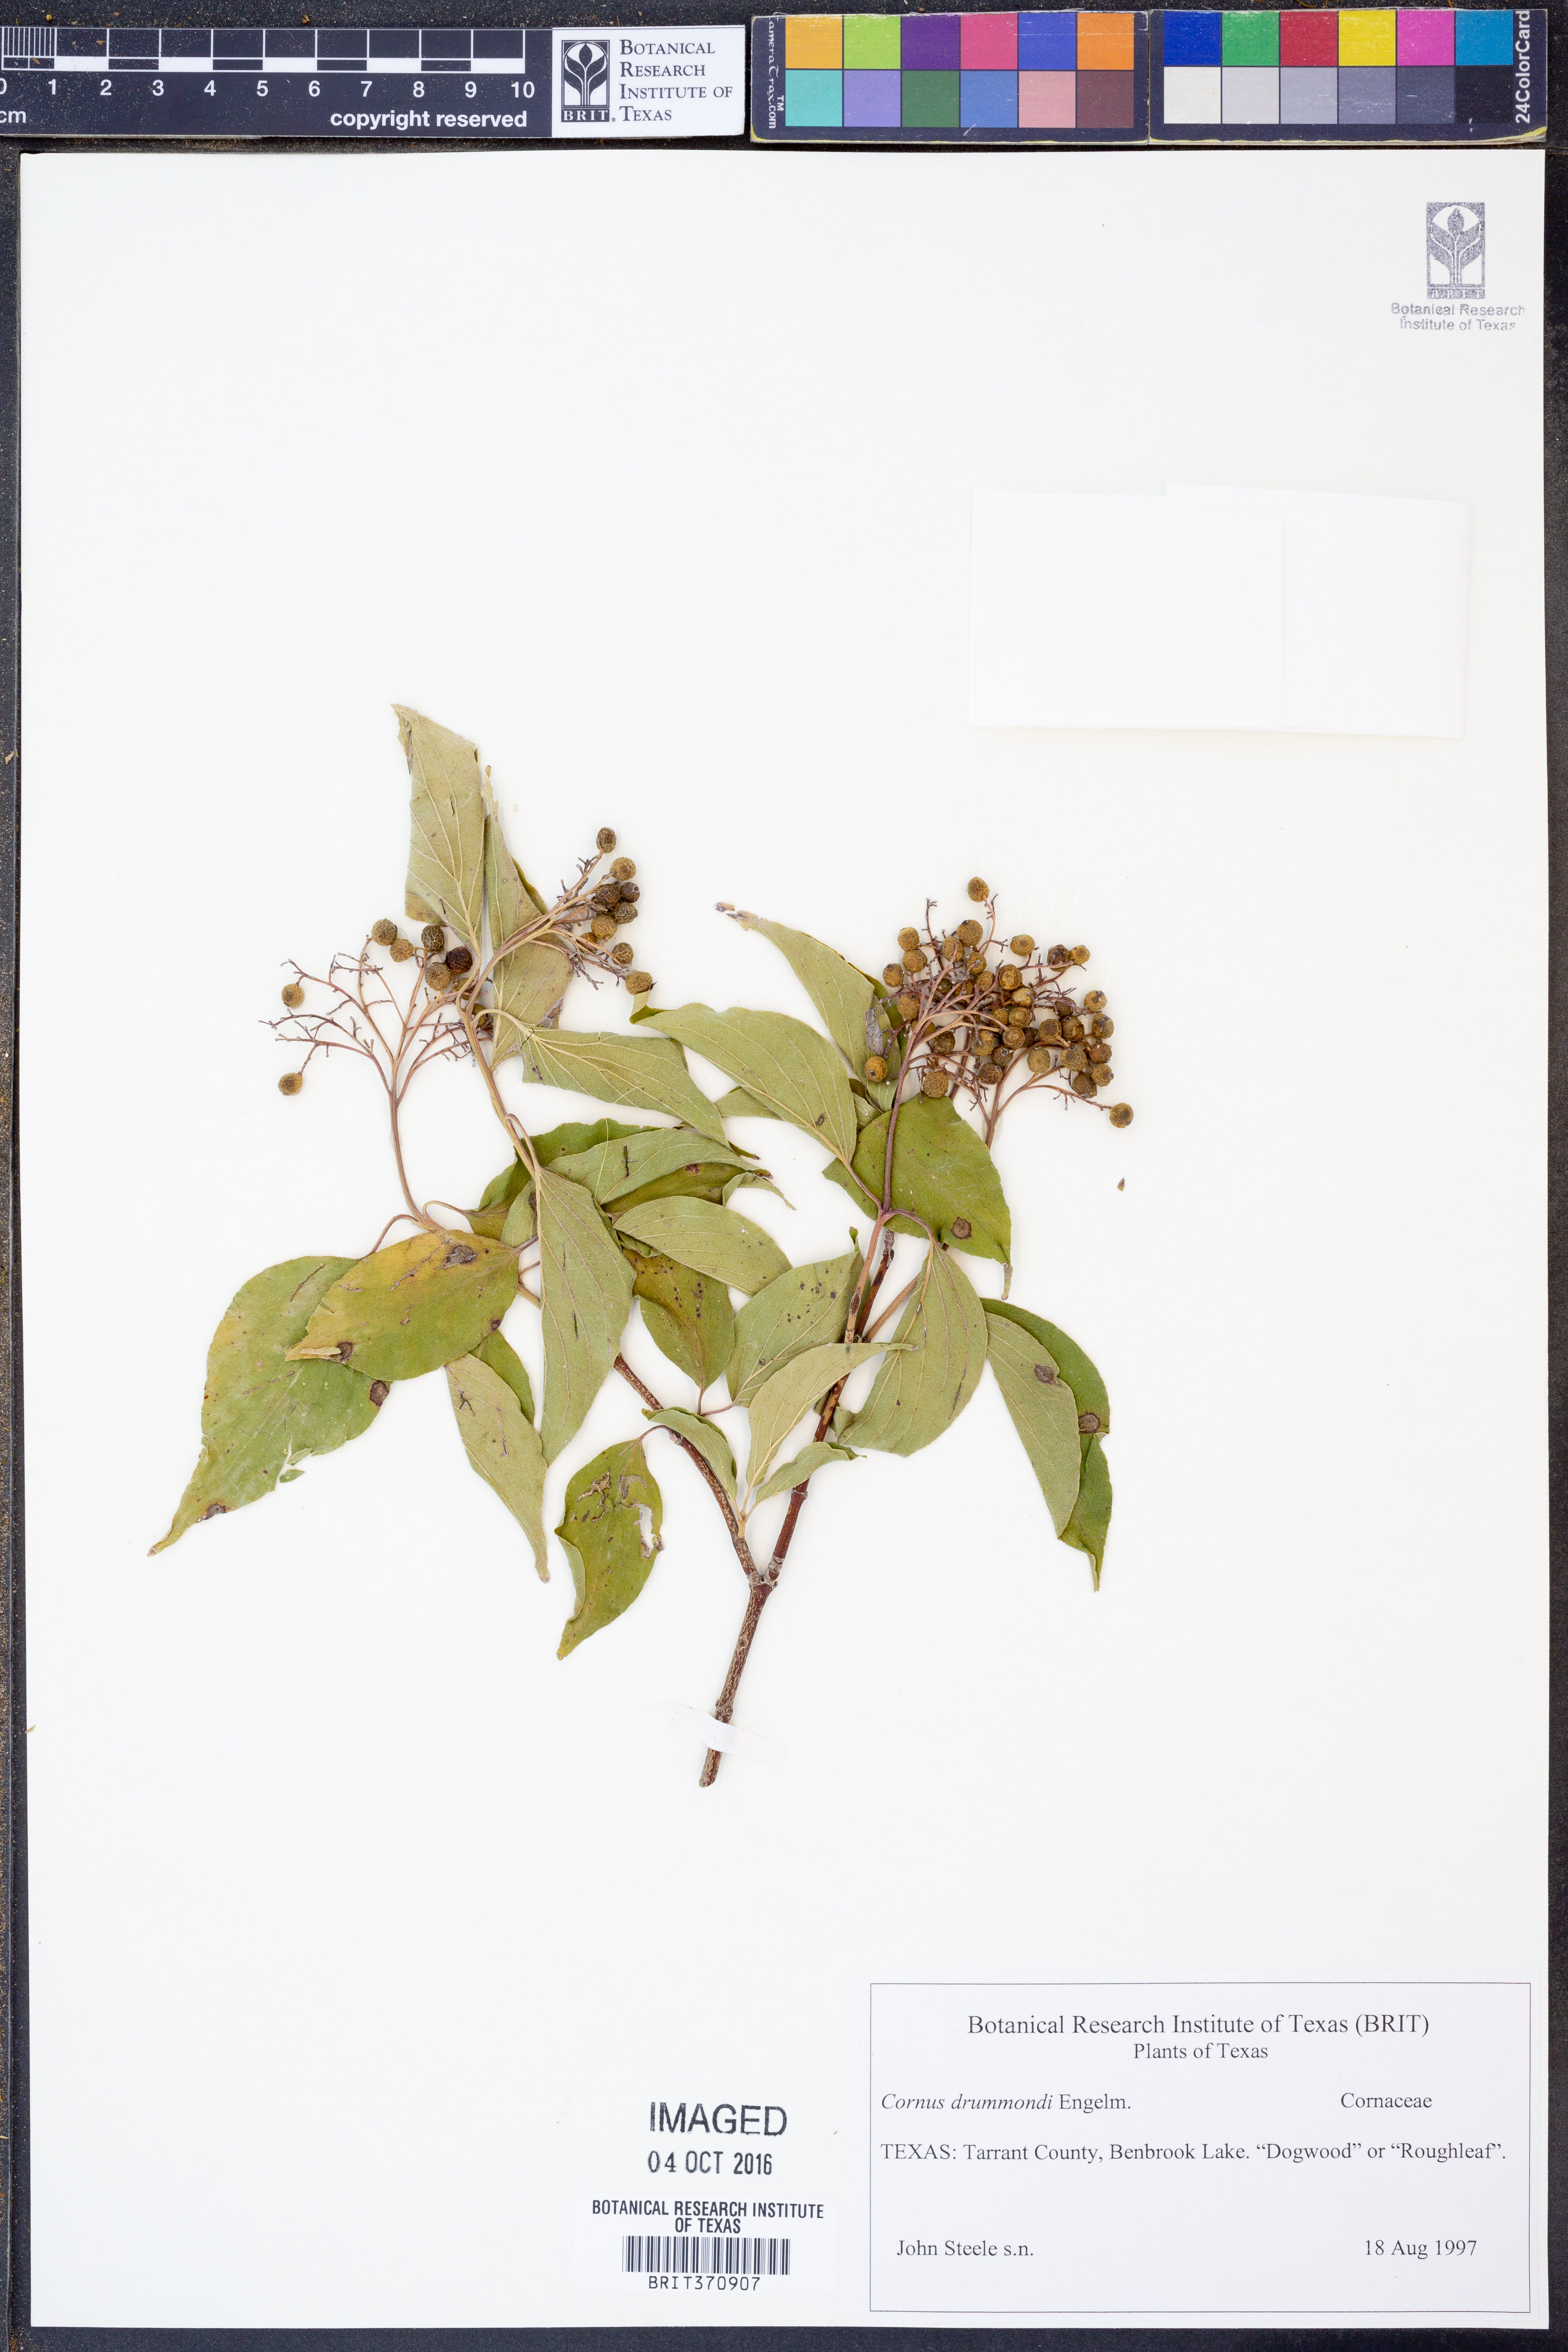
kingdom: Plantae
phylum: Tracheophyta
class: Magnoliopsida
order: Cornales
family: Cornaceae
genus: Cornus
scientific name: Cornus drummondii
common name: Rough-leaf dogwood
